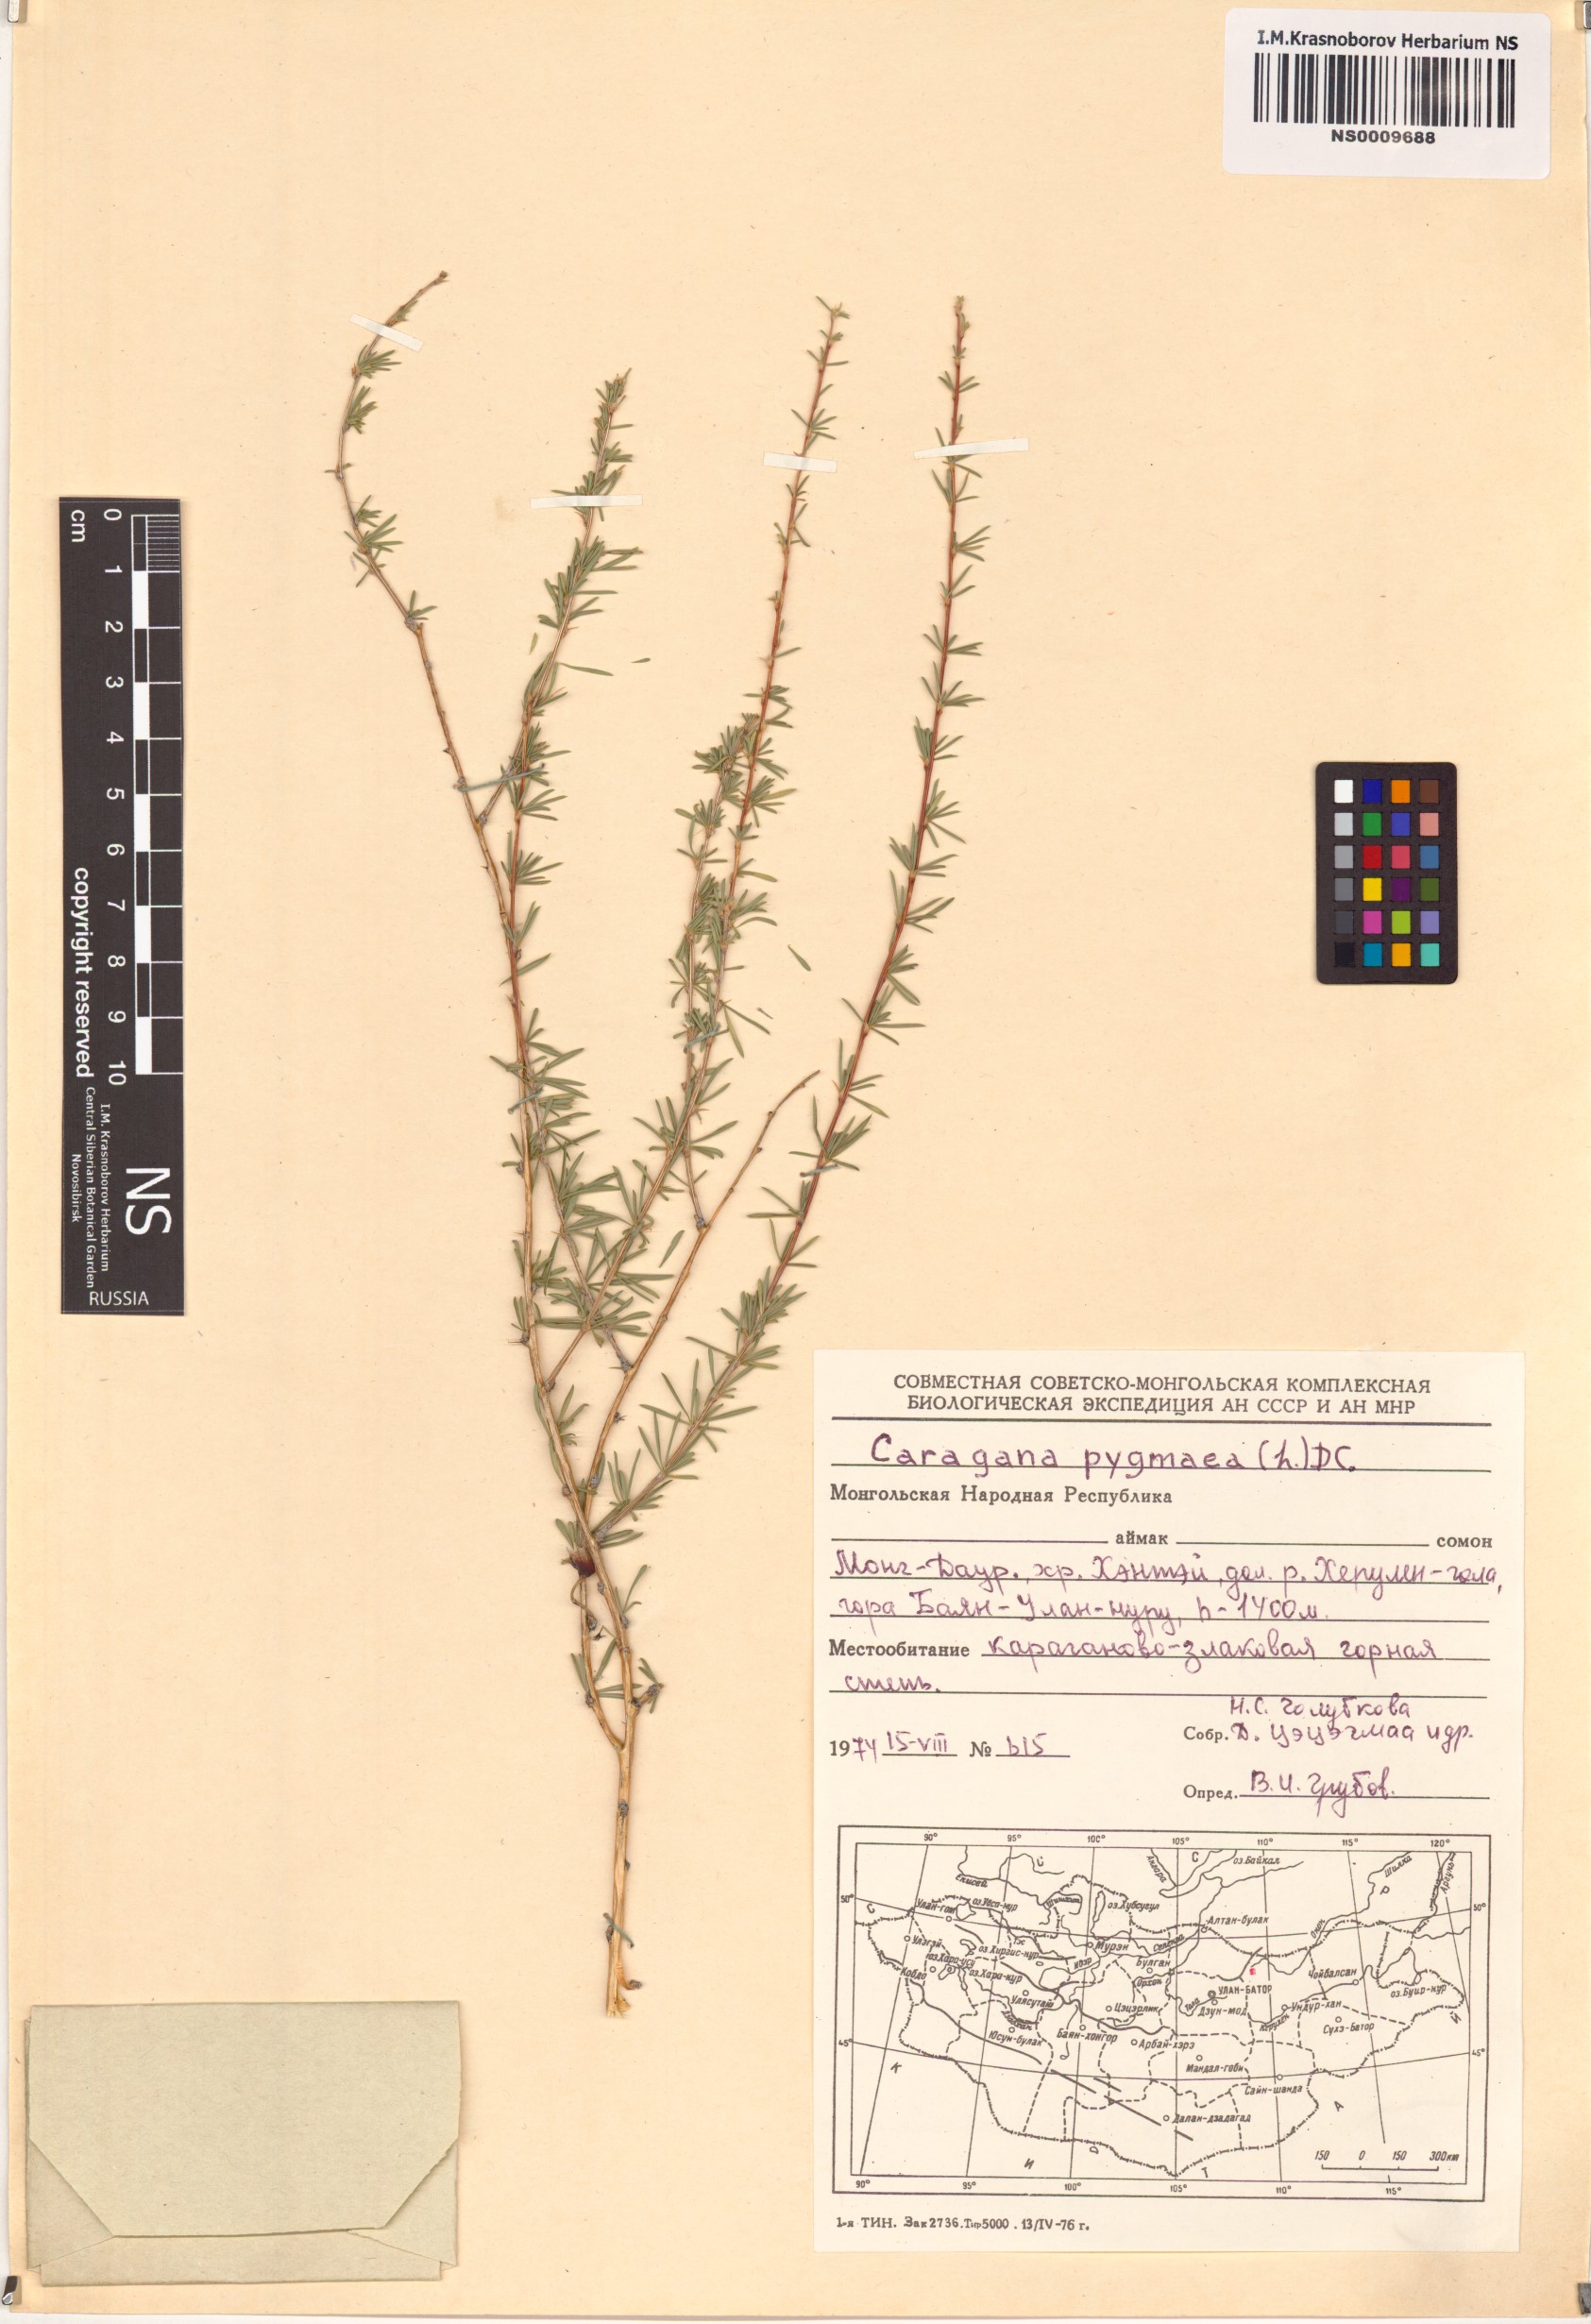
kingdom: Plantae
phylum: Tracheophyta
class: Magnoliopsida
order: Fabales
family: Fabaceae
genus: Caragana
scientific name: Caragana pygmaea
